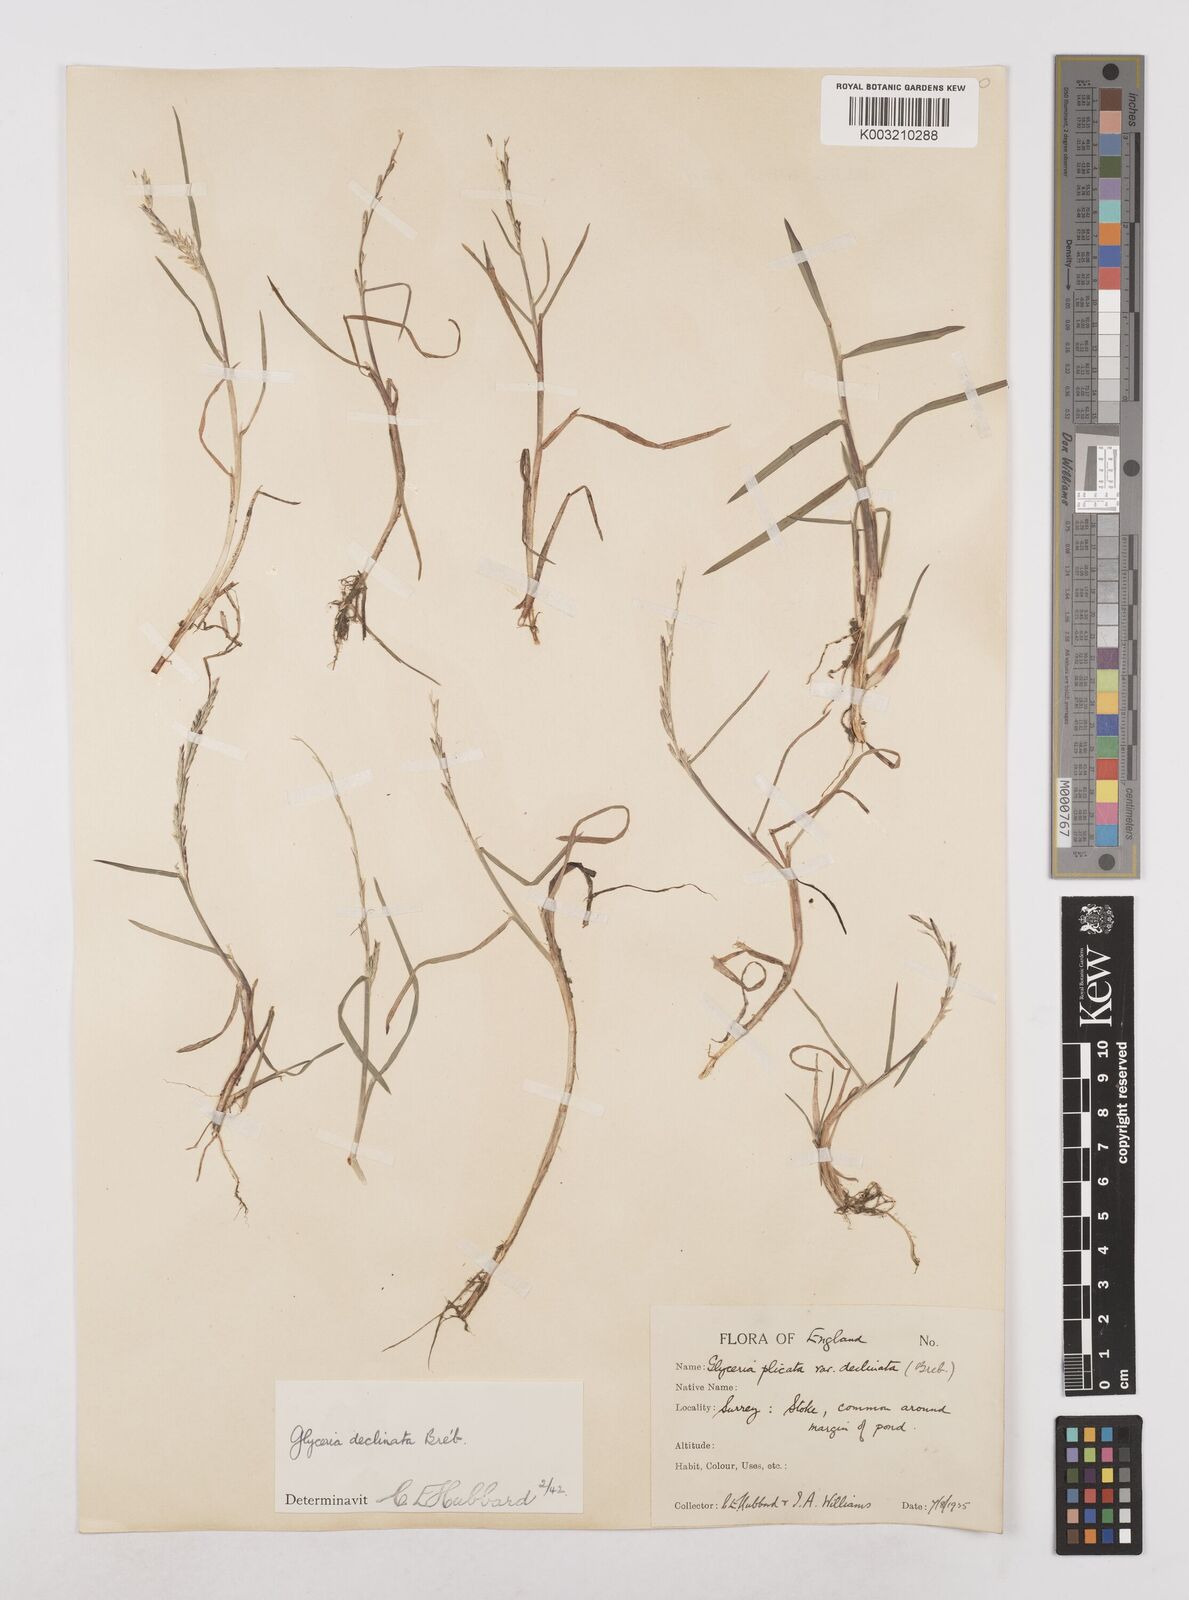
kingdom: Plantae
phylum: Tracheophyta
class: Liliopsida
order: Poales
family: Poaceae
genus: Glyceria
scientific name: Glyceria declinata
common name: Small sweet-grass
